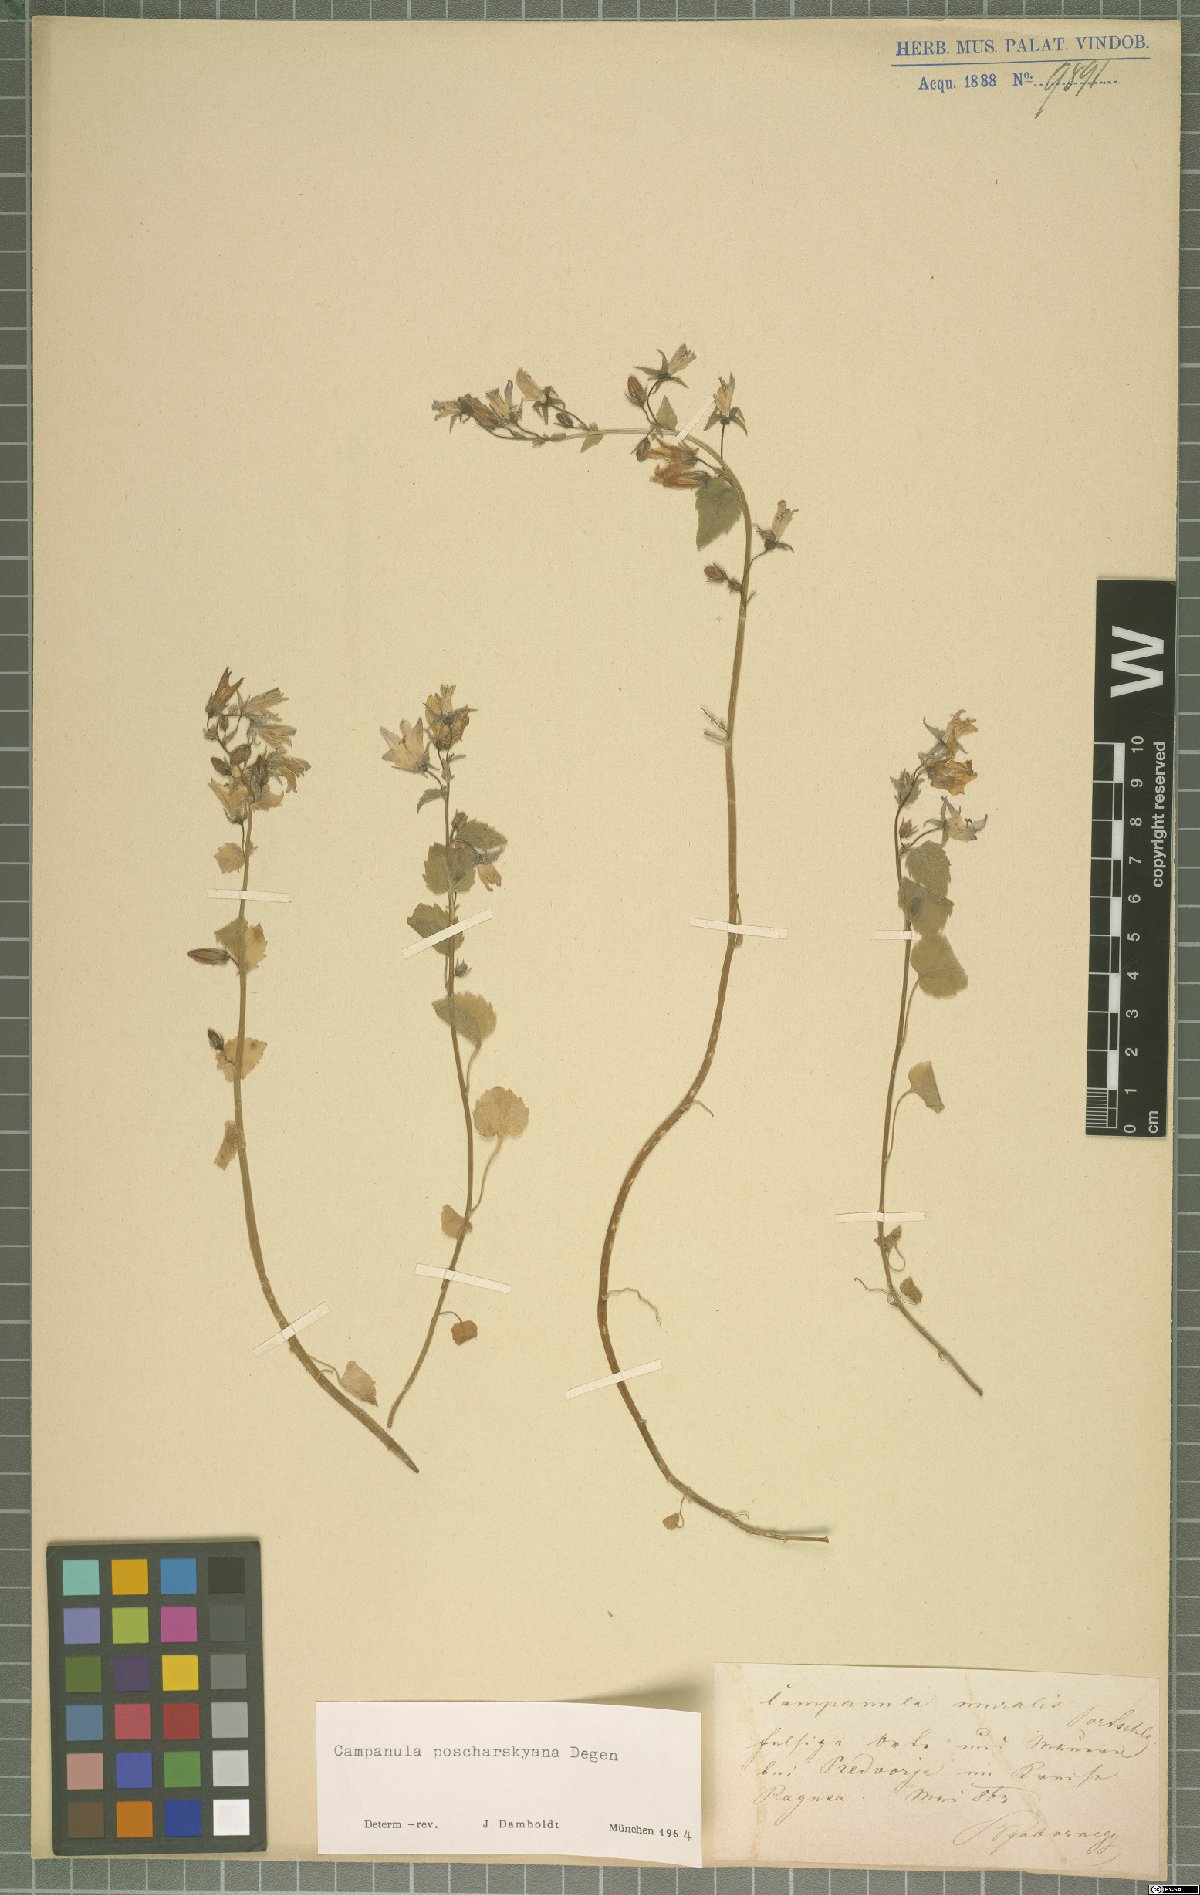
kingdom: Plantae
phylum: Tracheophyta
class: Magnoliopsida
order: Asterales
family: Campanulaceae
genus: Campanula
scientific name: Campanula poscharskyana
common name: Trailing bellflower
